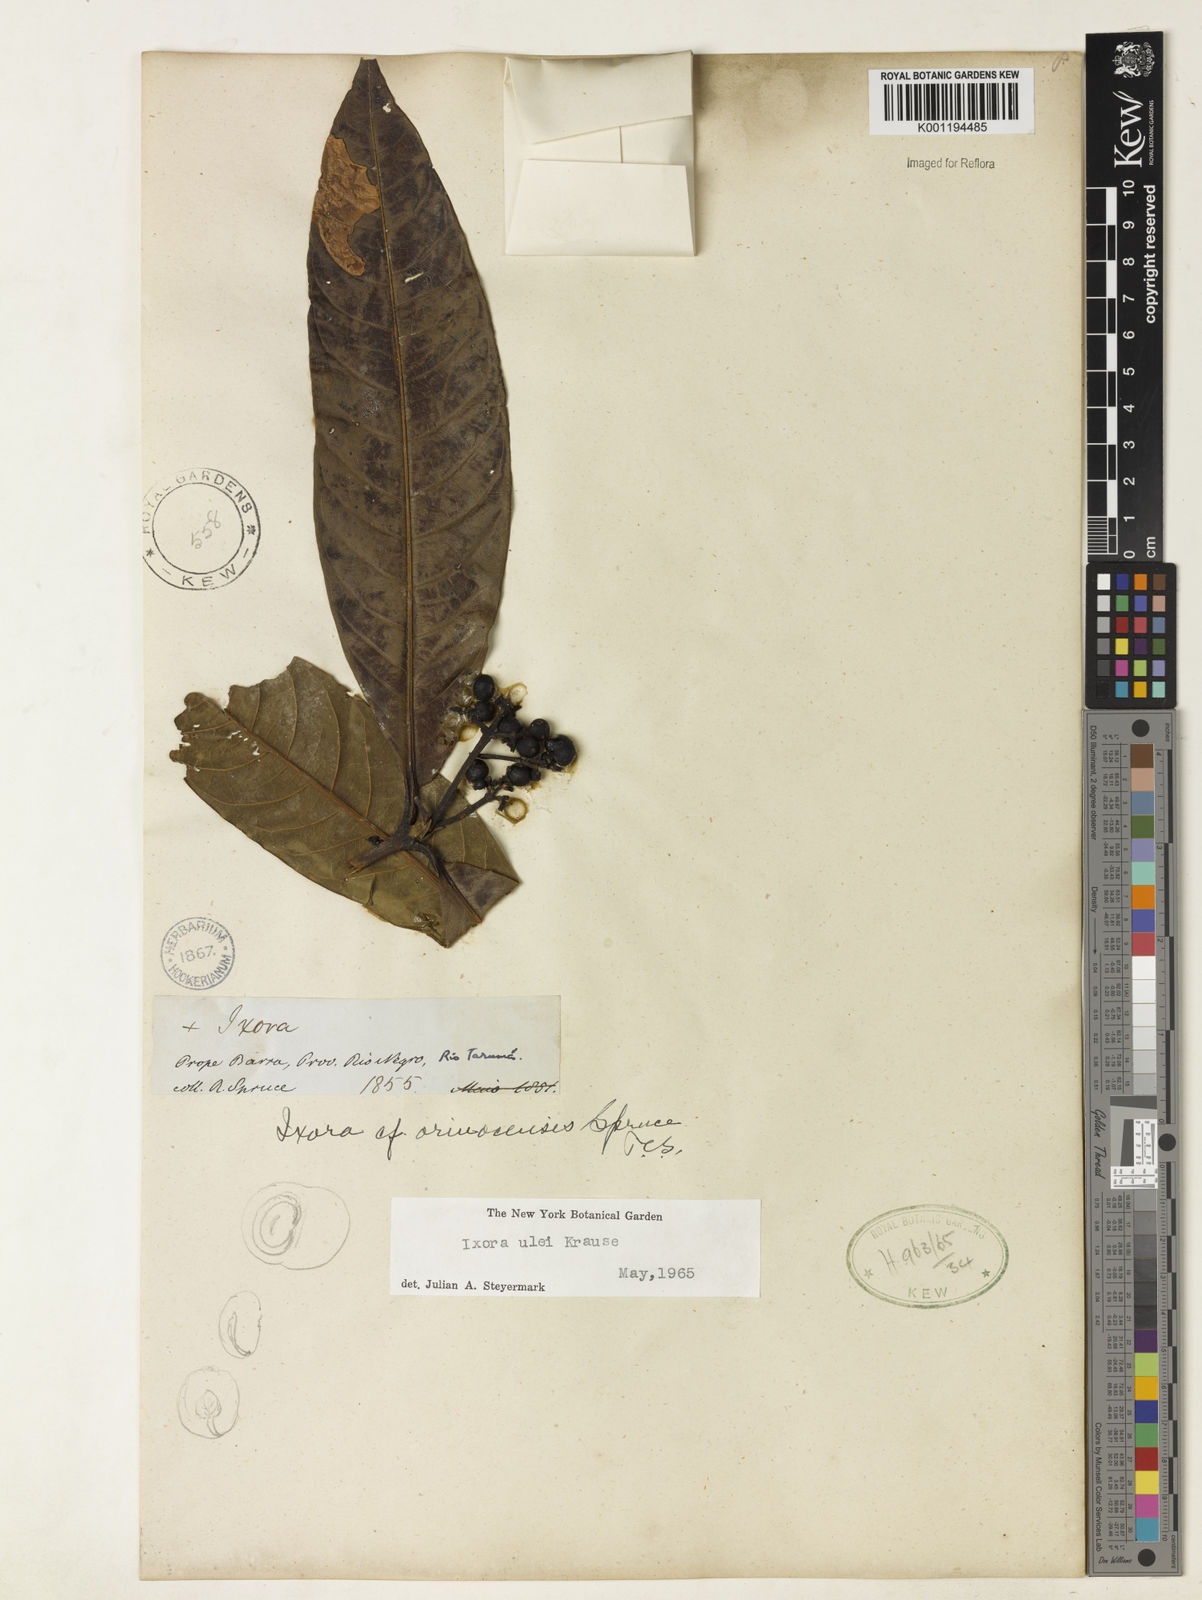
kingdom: Plantae
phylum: Tracheophyta
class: Magnoliopsida
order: Gentianales
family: Rubiaceae
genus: Ixora
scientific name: Ixora sparsifolia
